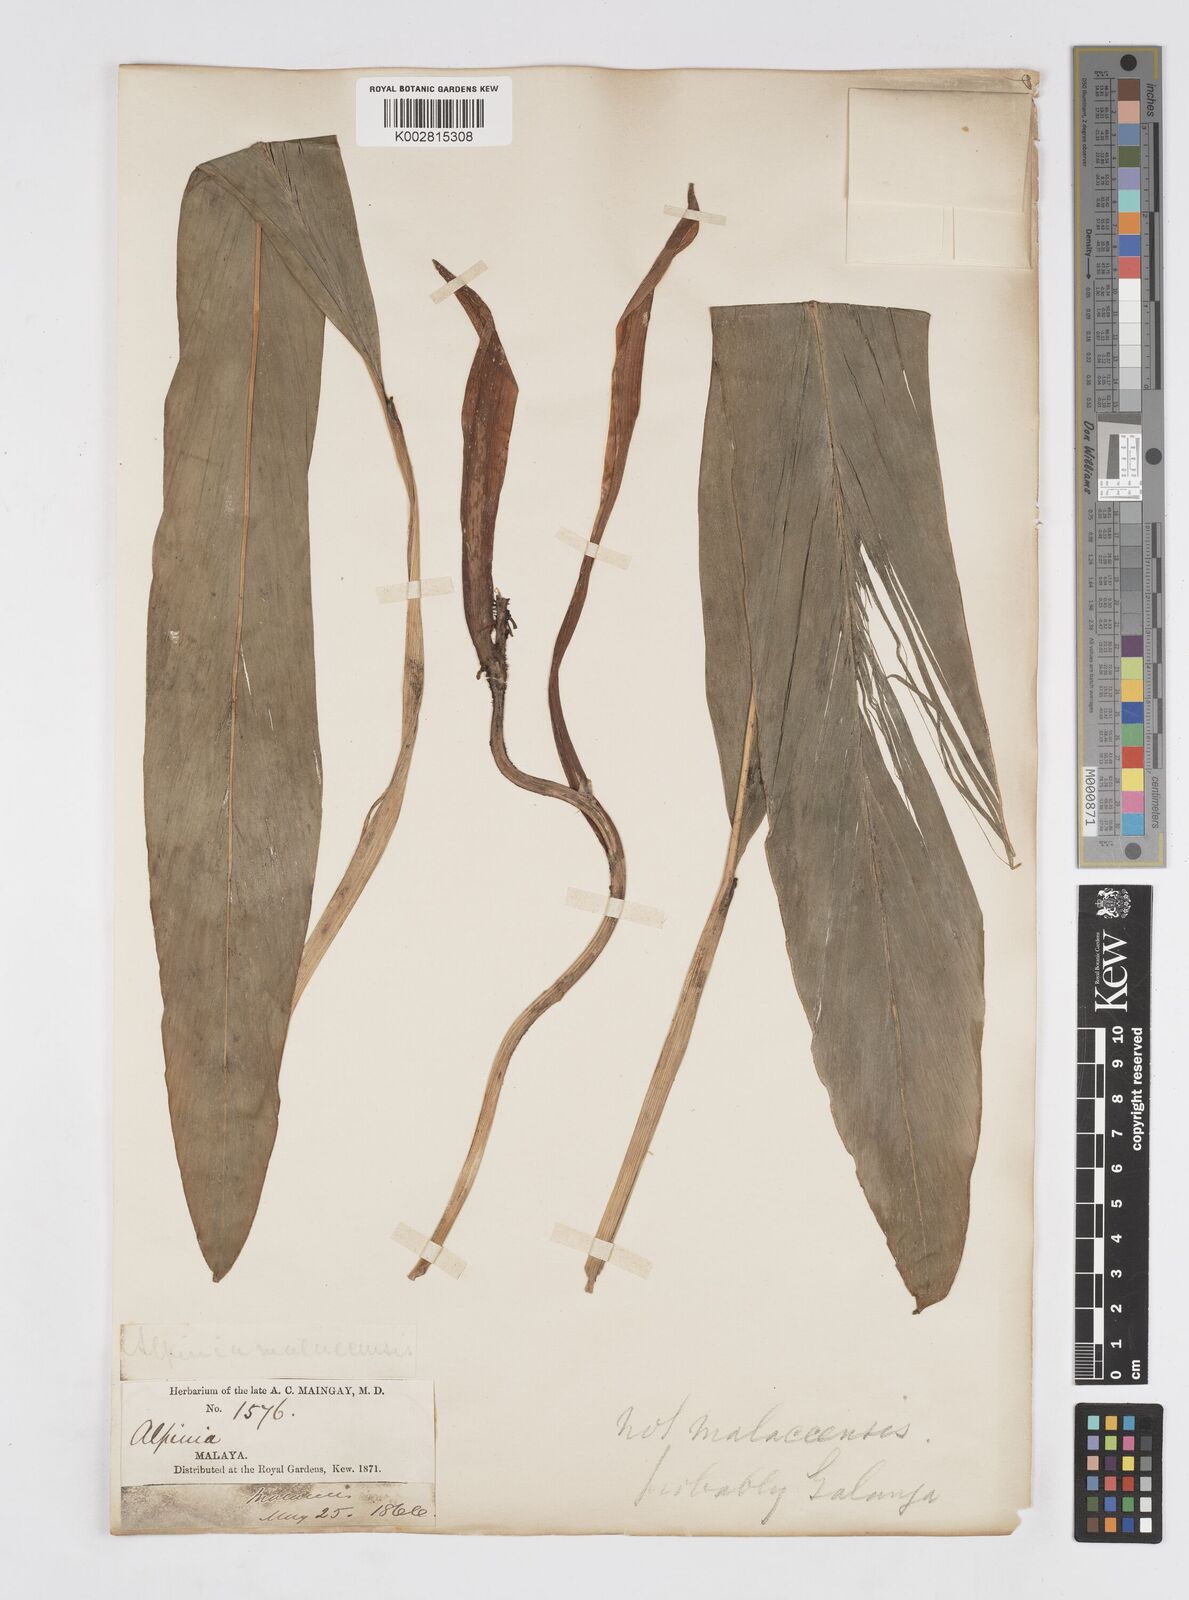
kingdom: Plantae
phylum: Tracheophyta
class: Liliopsida
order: Zingiberales
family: Zingiberaceae
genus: Alpinia
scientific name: Alpinia galanga
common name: Siamese-ginger
